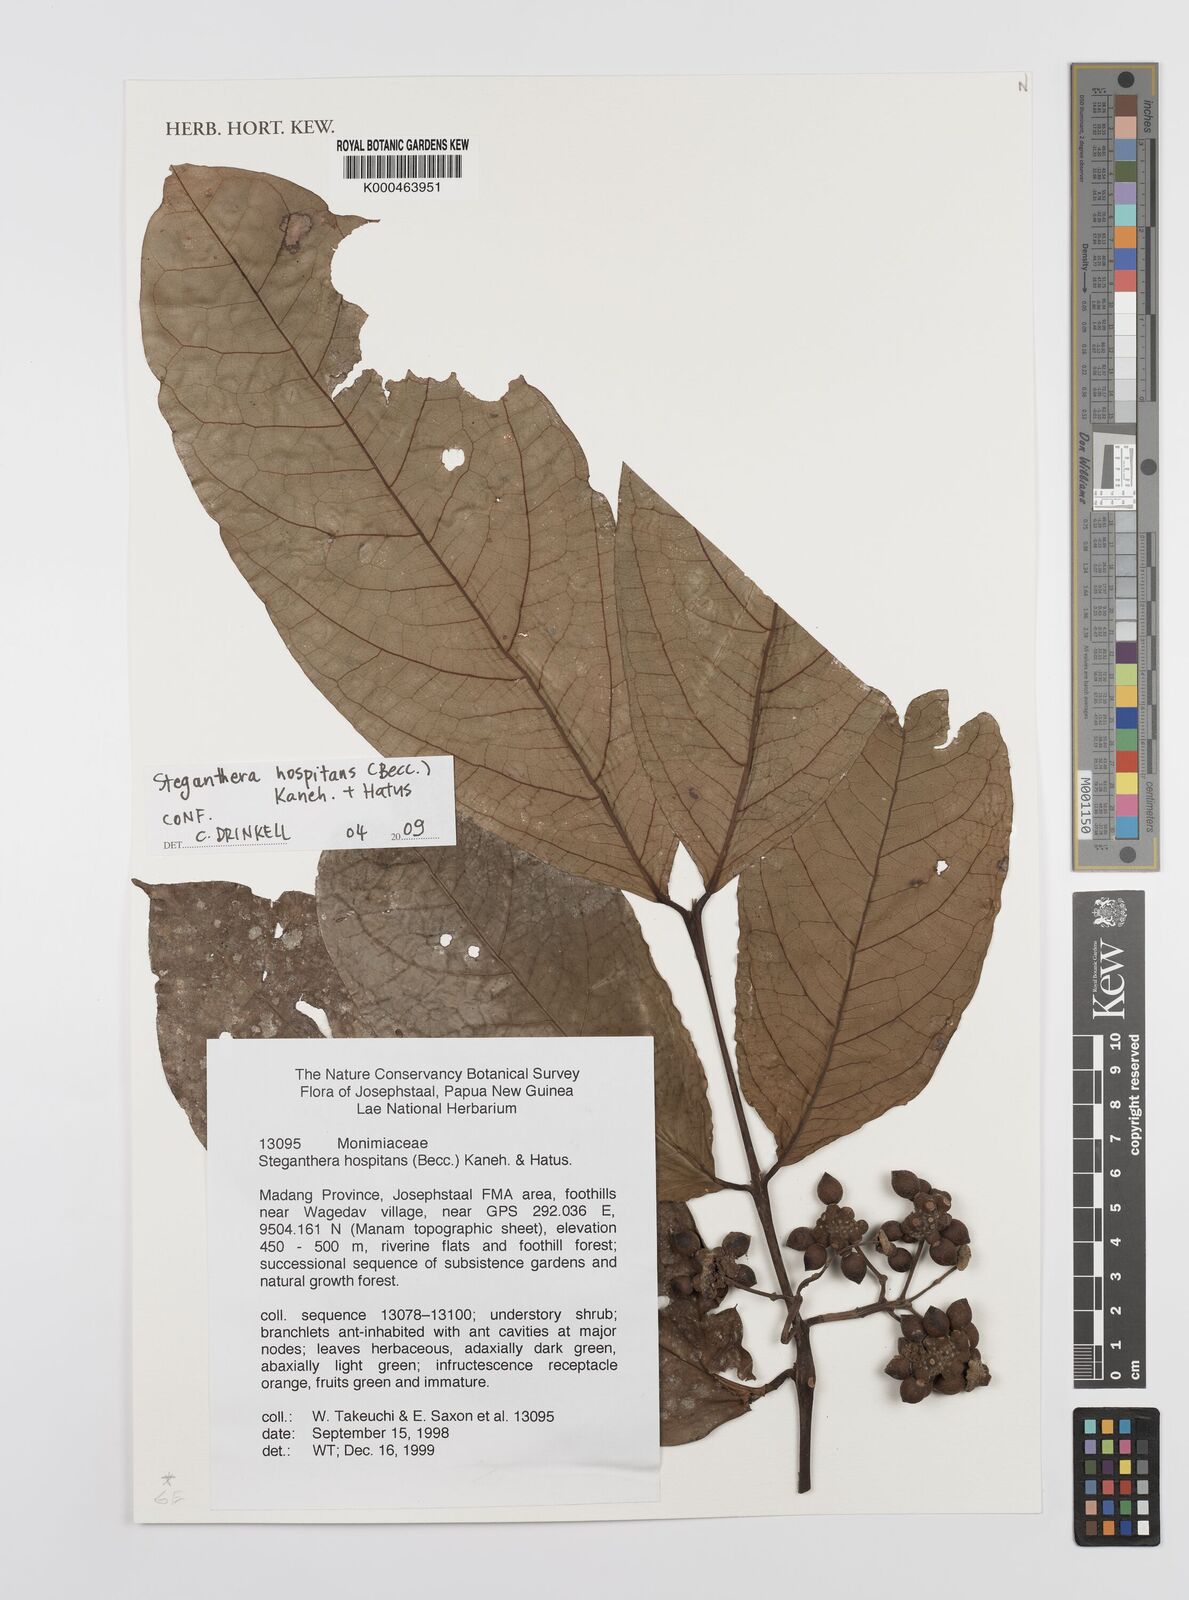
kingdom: Plantae
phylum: Tracheophyta
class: Magnoliopsida
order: Laurales
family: Monimiaceae
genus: Steganthera
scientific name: Steganthera hospitans
